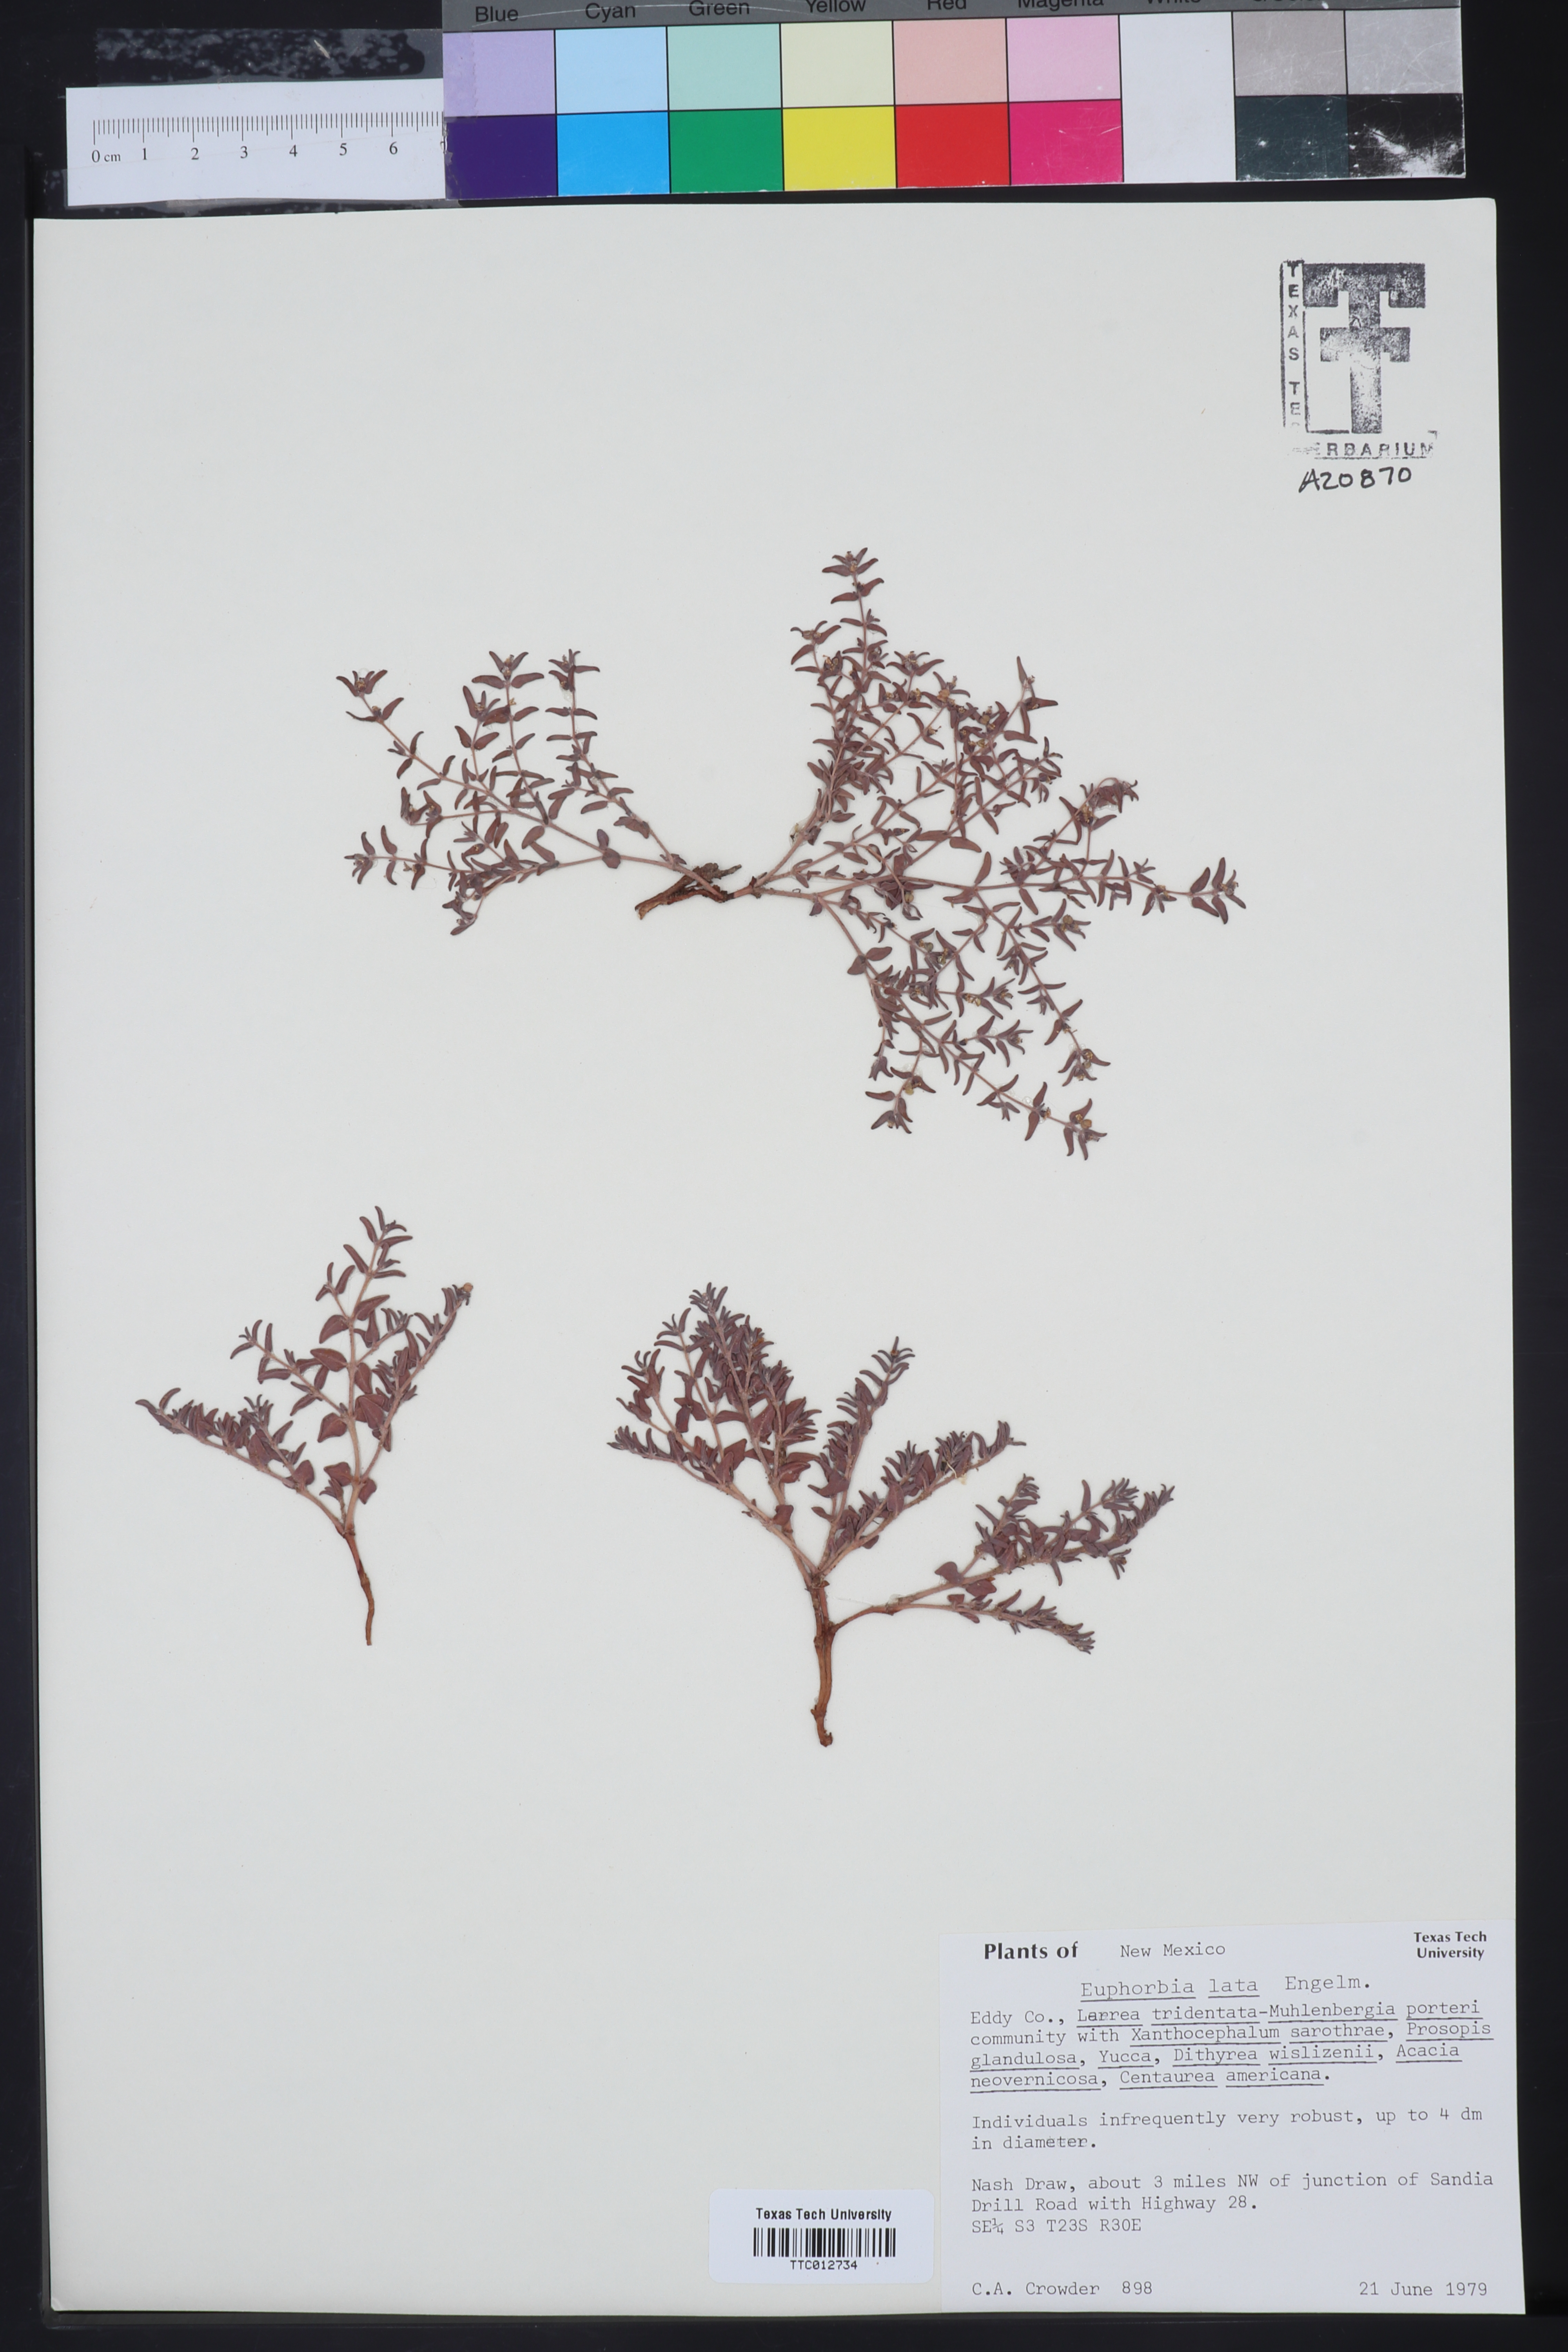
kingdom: Plantae
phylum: Tracheophyta
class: Magnoliopsida
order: Malpighiales
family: Euphorbiaceae
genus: Euphorbia
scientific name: Euphorbia lata
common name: Hoary euphorbia
